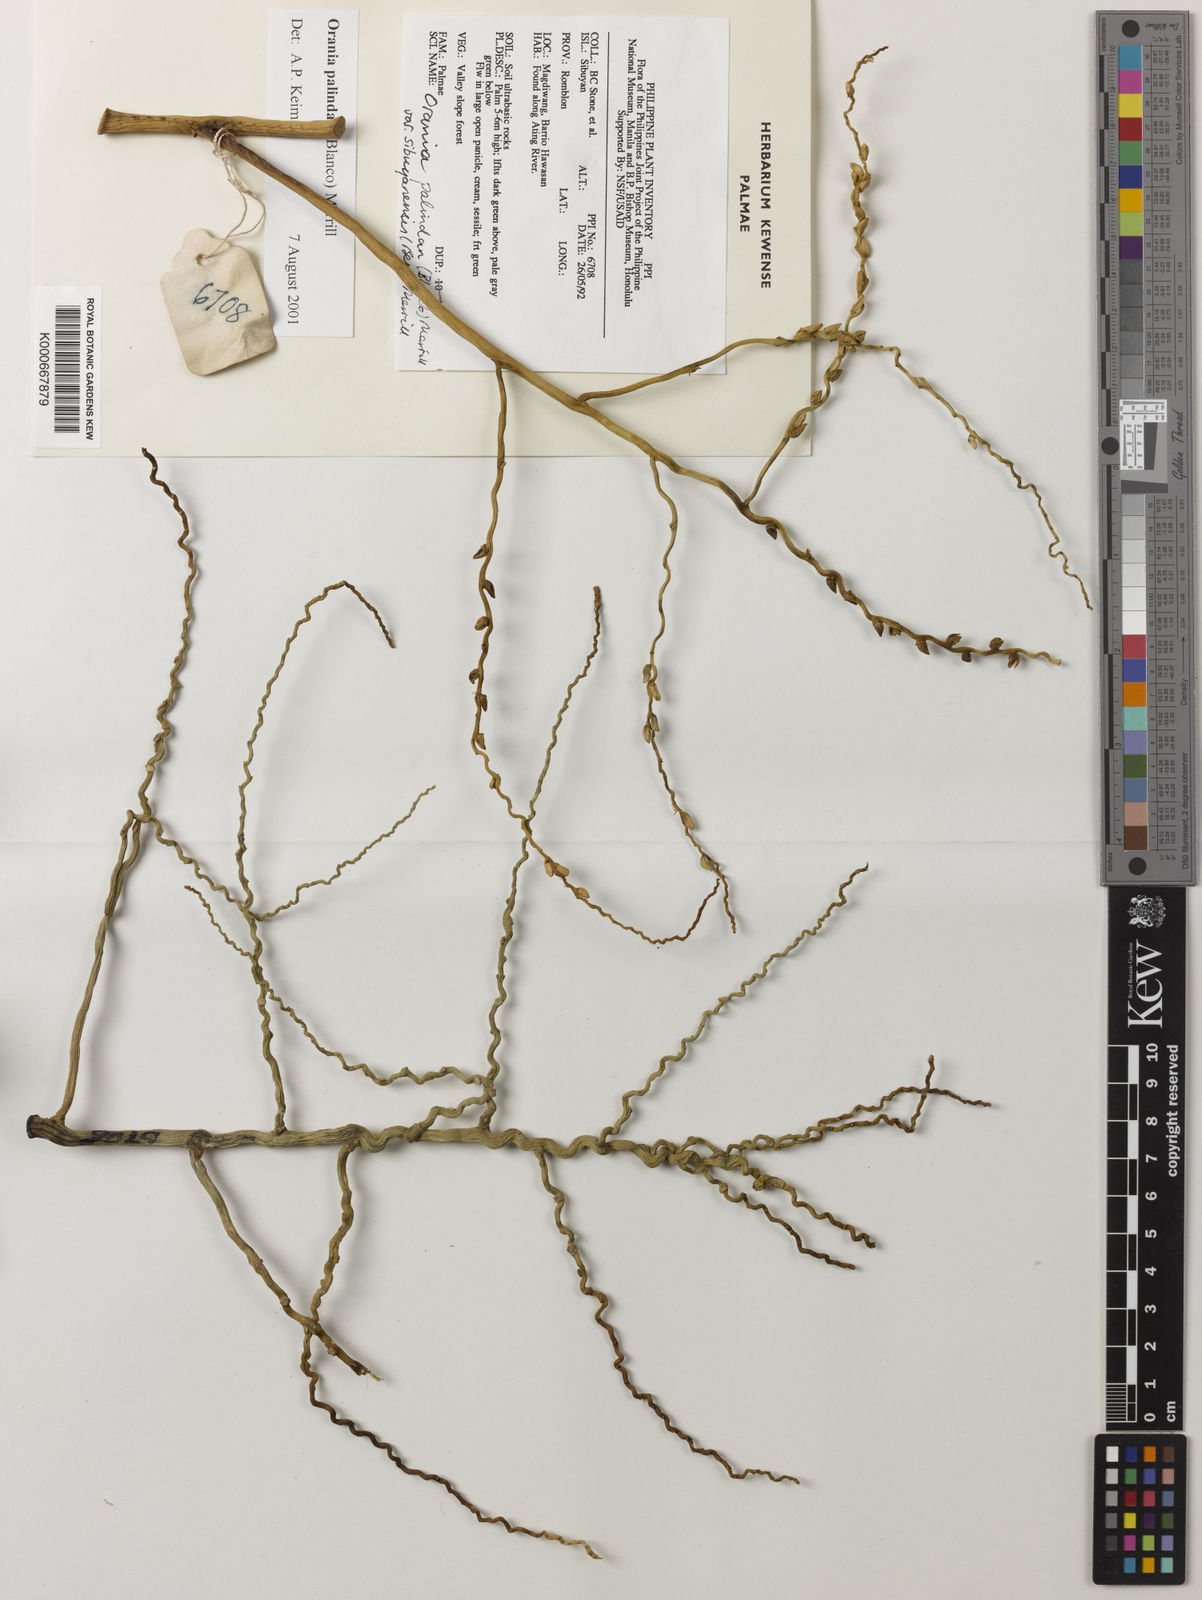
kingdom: Plantae
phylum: Tracheophyta
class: Liliopsida
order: Arecales
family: Arecaceae
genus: Orania
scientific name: Orania palindan
